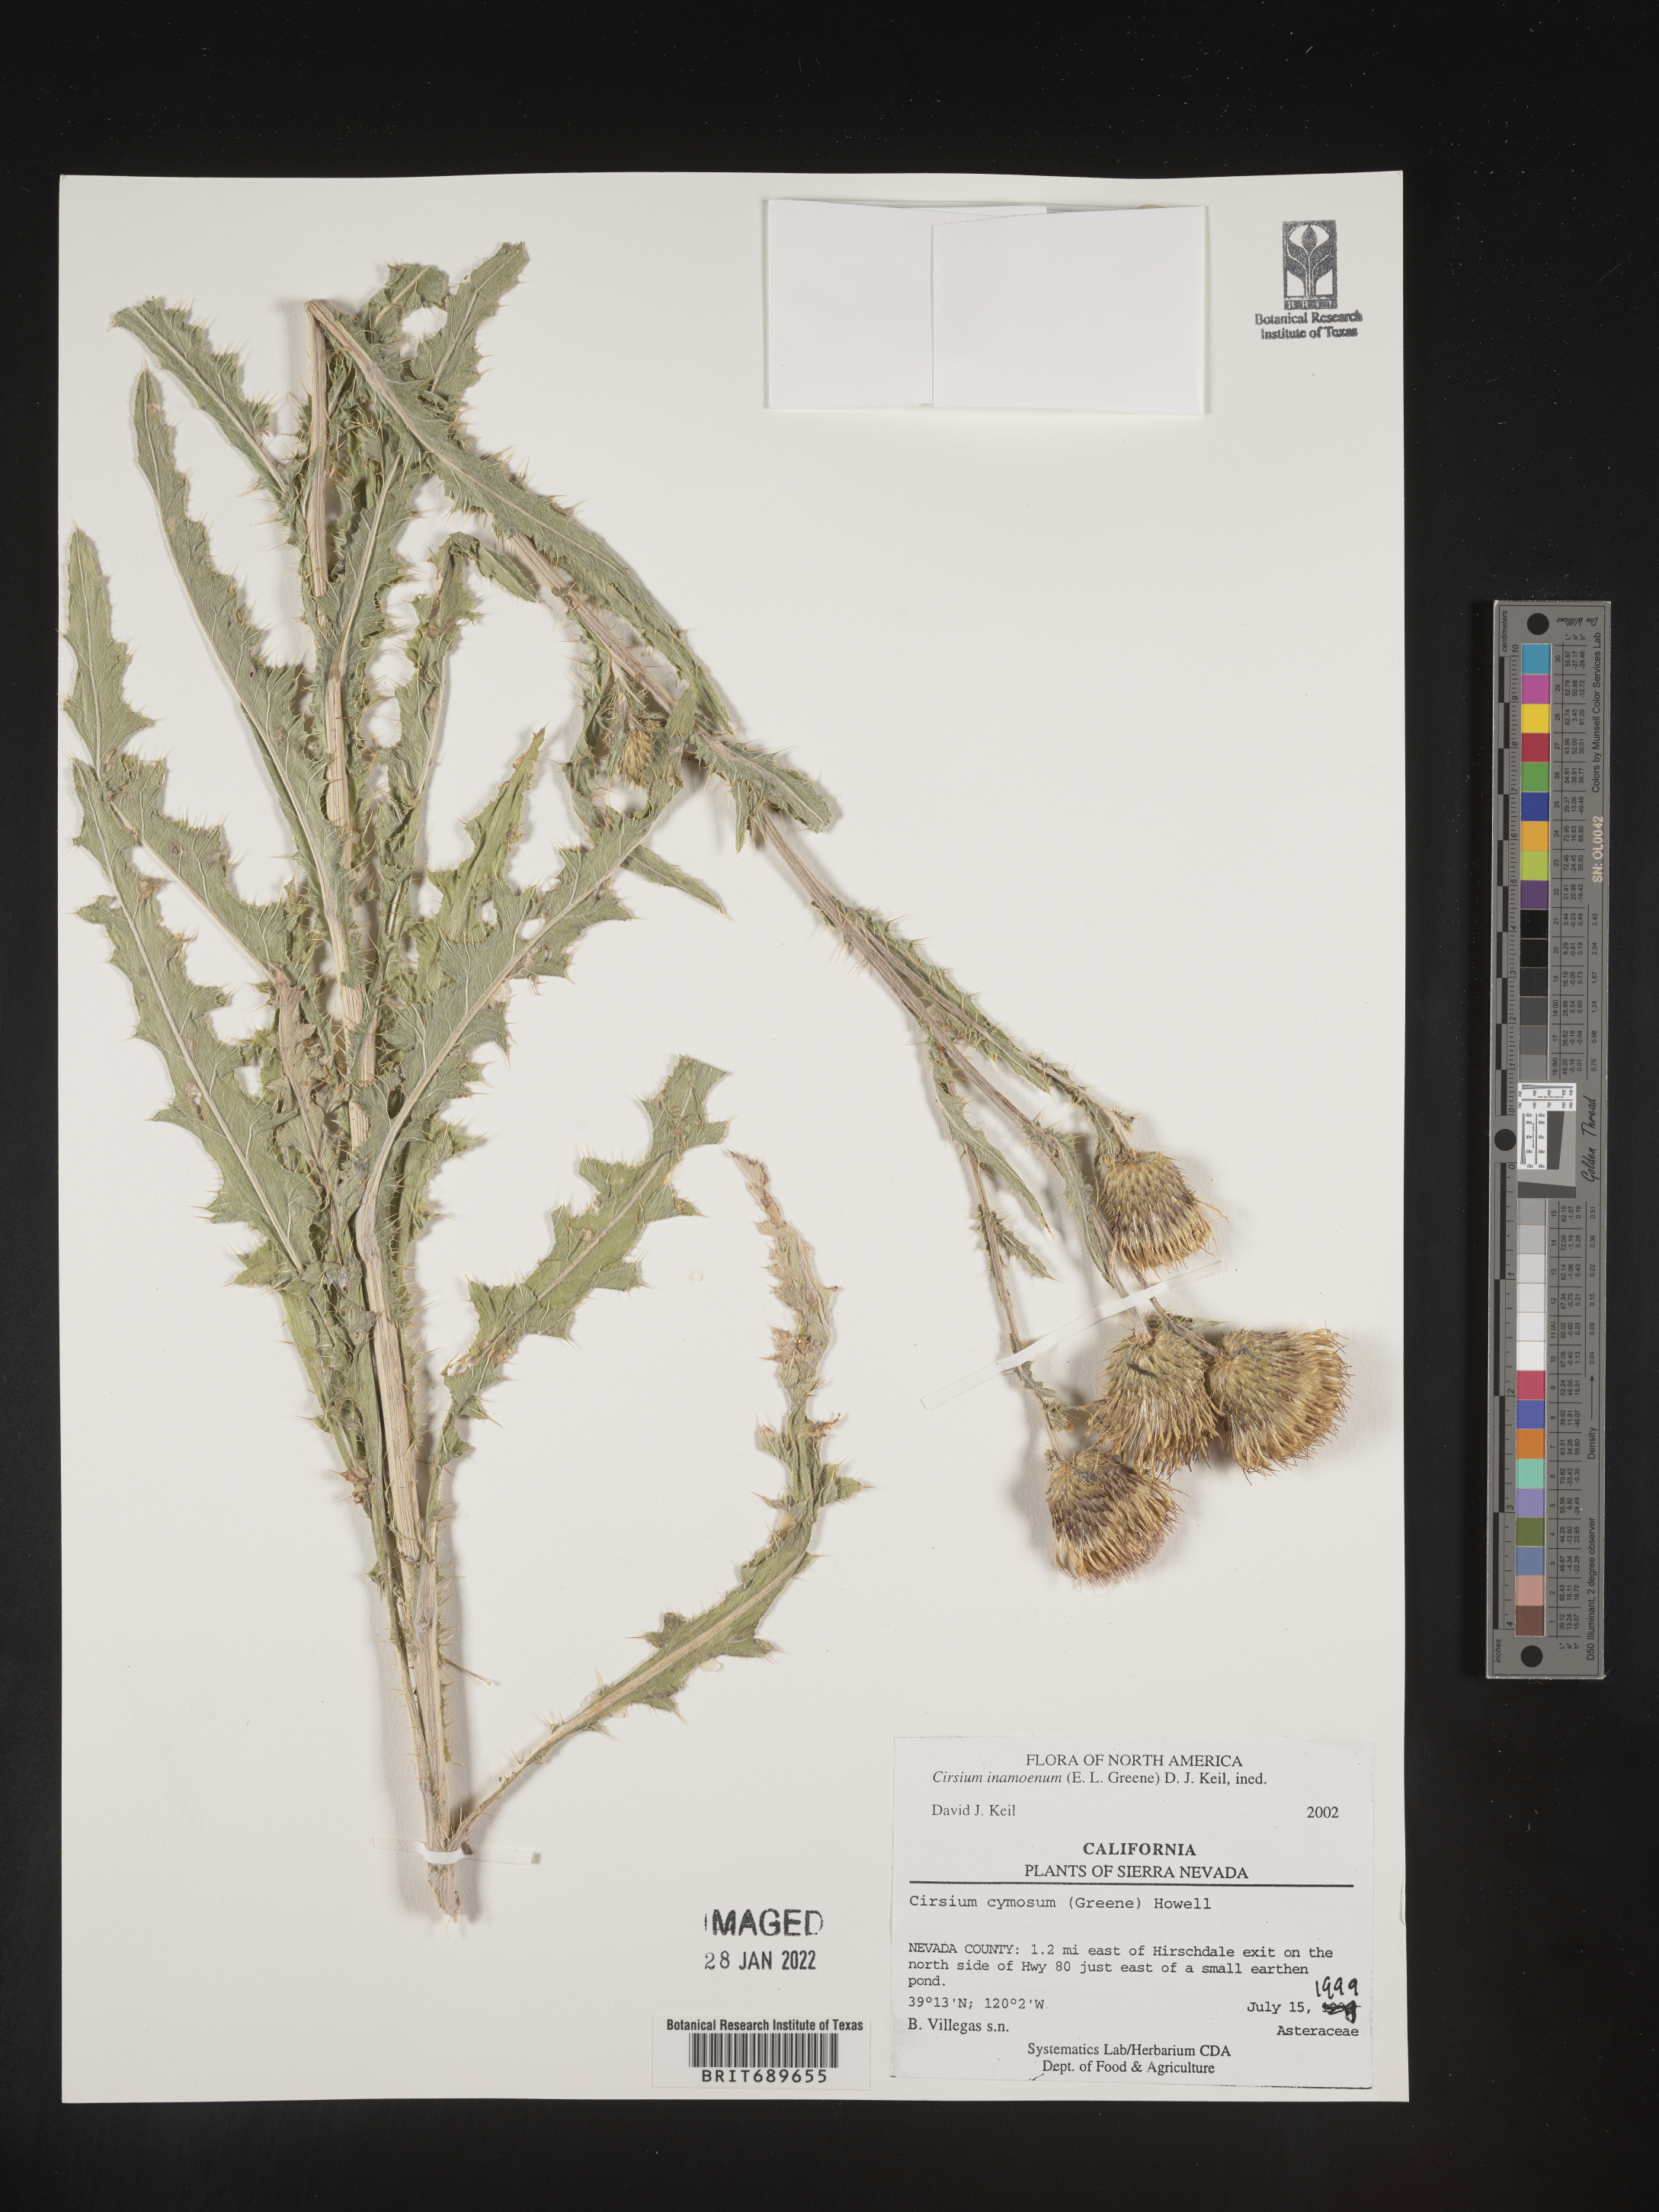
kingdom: Plantae
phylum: Tracheophyta
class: Magnoliopsida
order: Asterales
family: Asteraceae
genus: Cirsium
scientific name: Cirsium inamoenum
